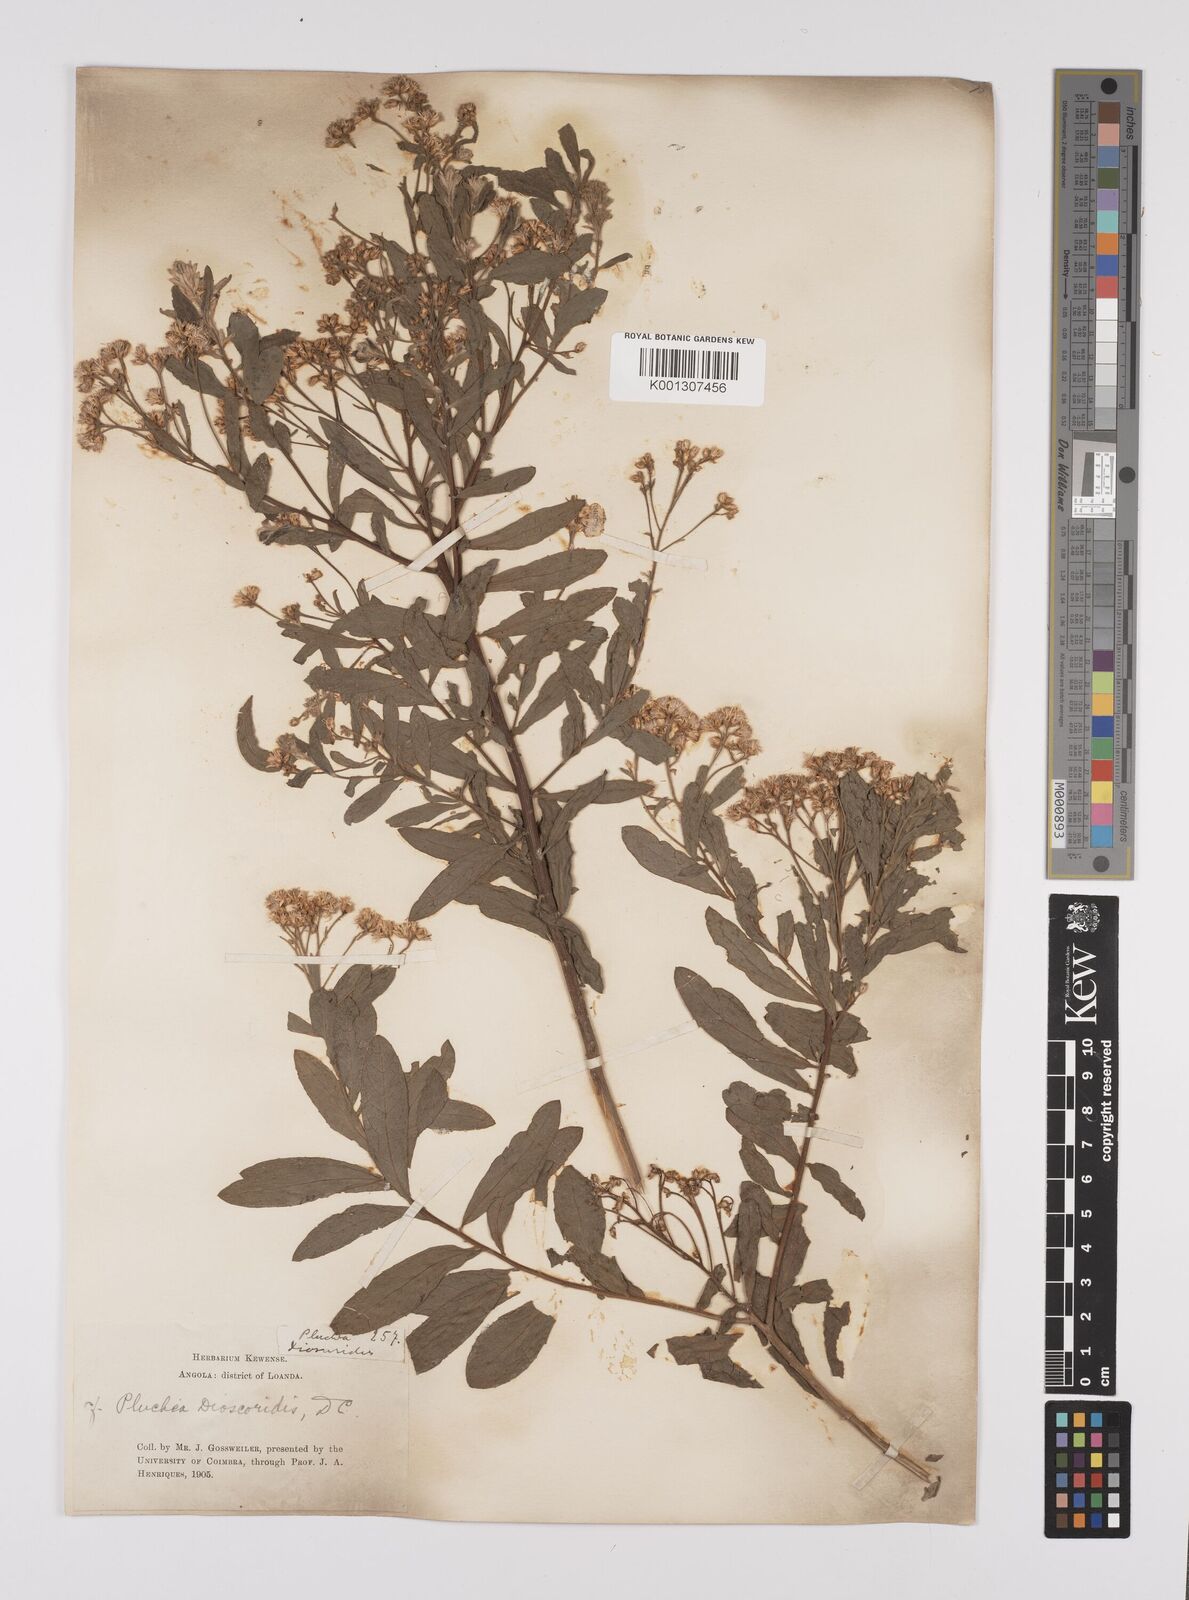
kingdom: Plantae
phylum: Tracheophyta
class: Magnoliopsida
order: Asterales
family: Asteraceae
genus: Pluchea
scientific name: Pluchea dioscoridis
